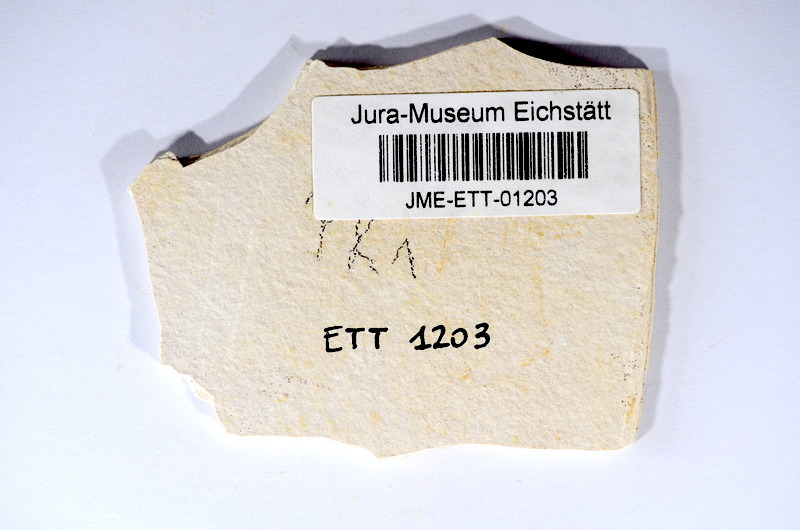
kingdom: Animalia
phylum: Chordata
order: Salmoniformes
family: Orthogonikleithridae
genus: Orthogonikleithrus
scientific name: Orthogonikleithrus hoelli
